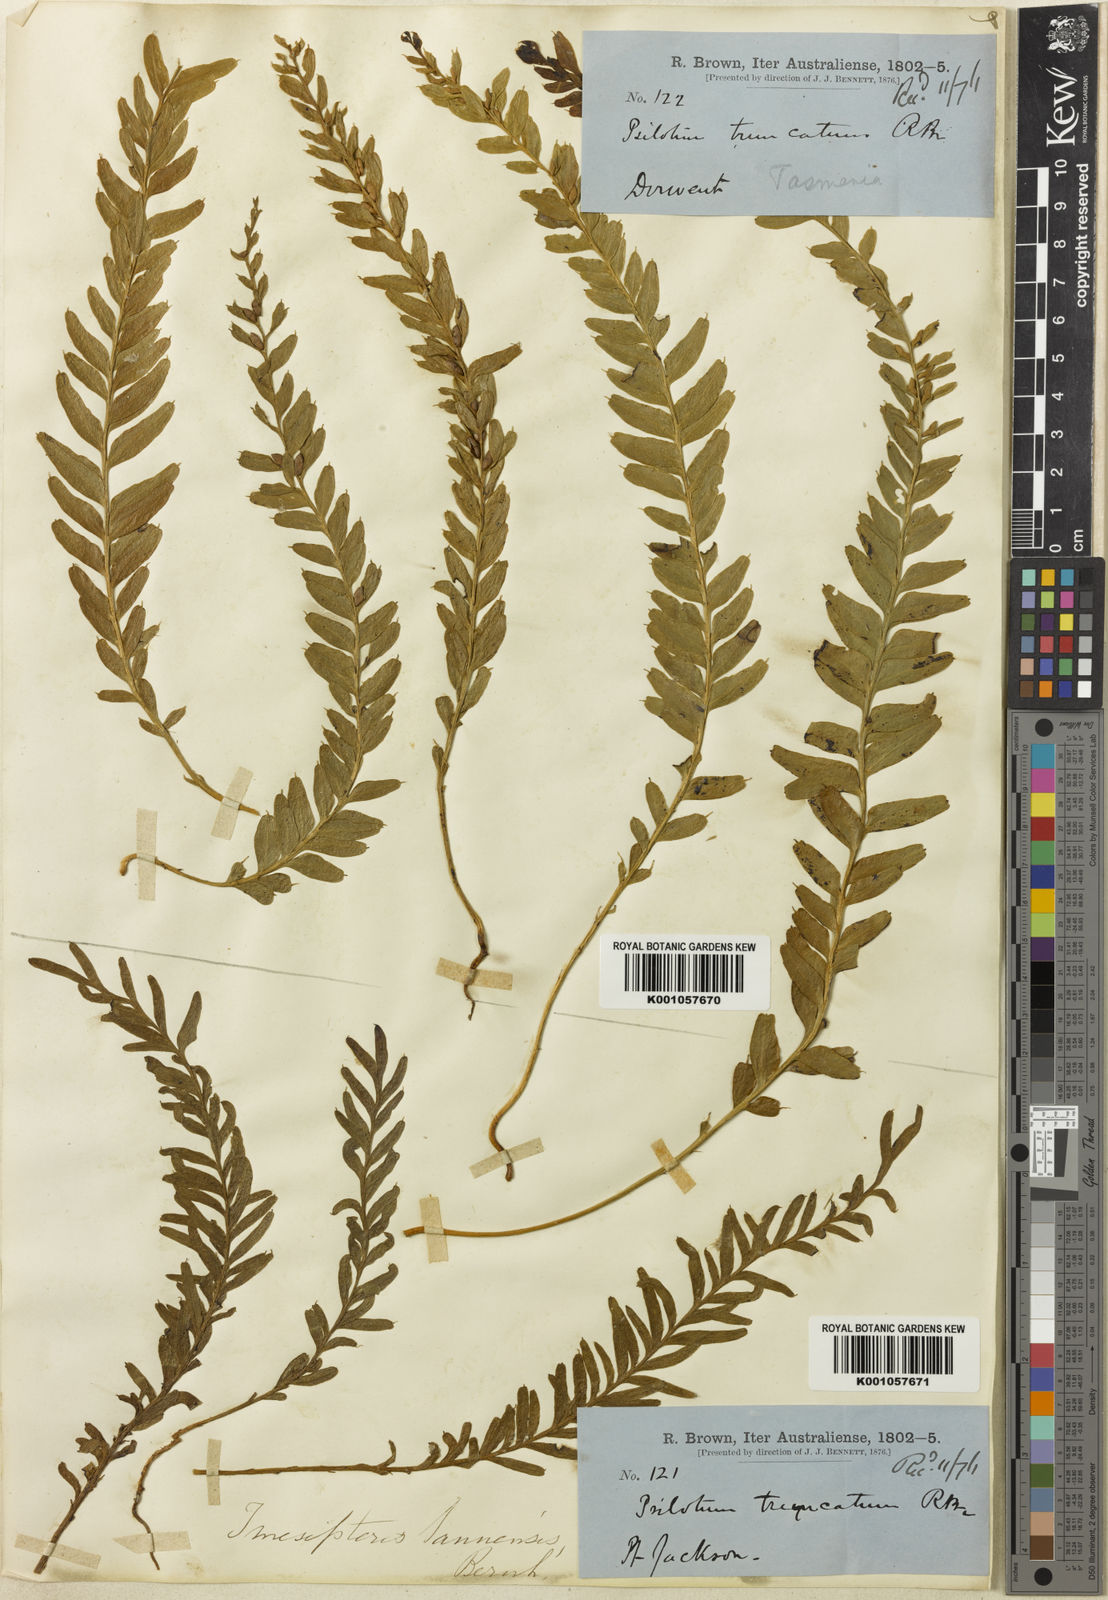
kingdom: Plantae
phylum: Tracheophyta
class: Polypodiopsida
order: Psilotales
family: Psilotaceae
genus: Tmesipteris
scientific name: Tmesipteris truncata
